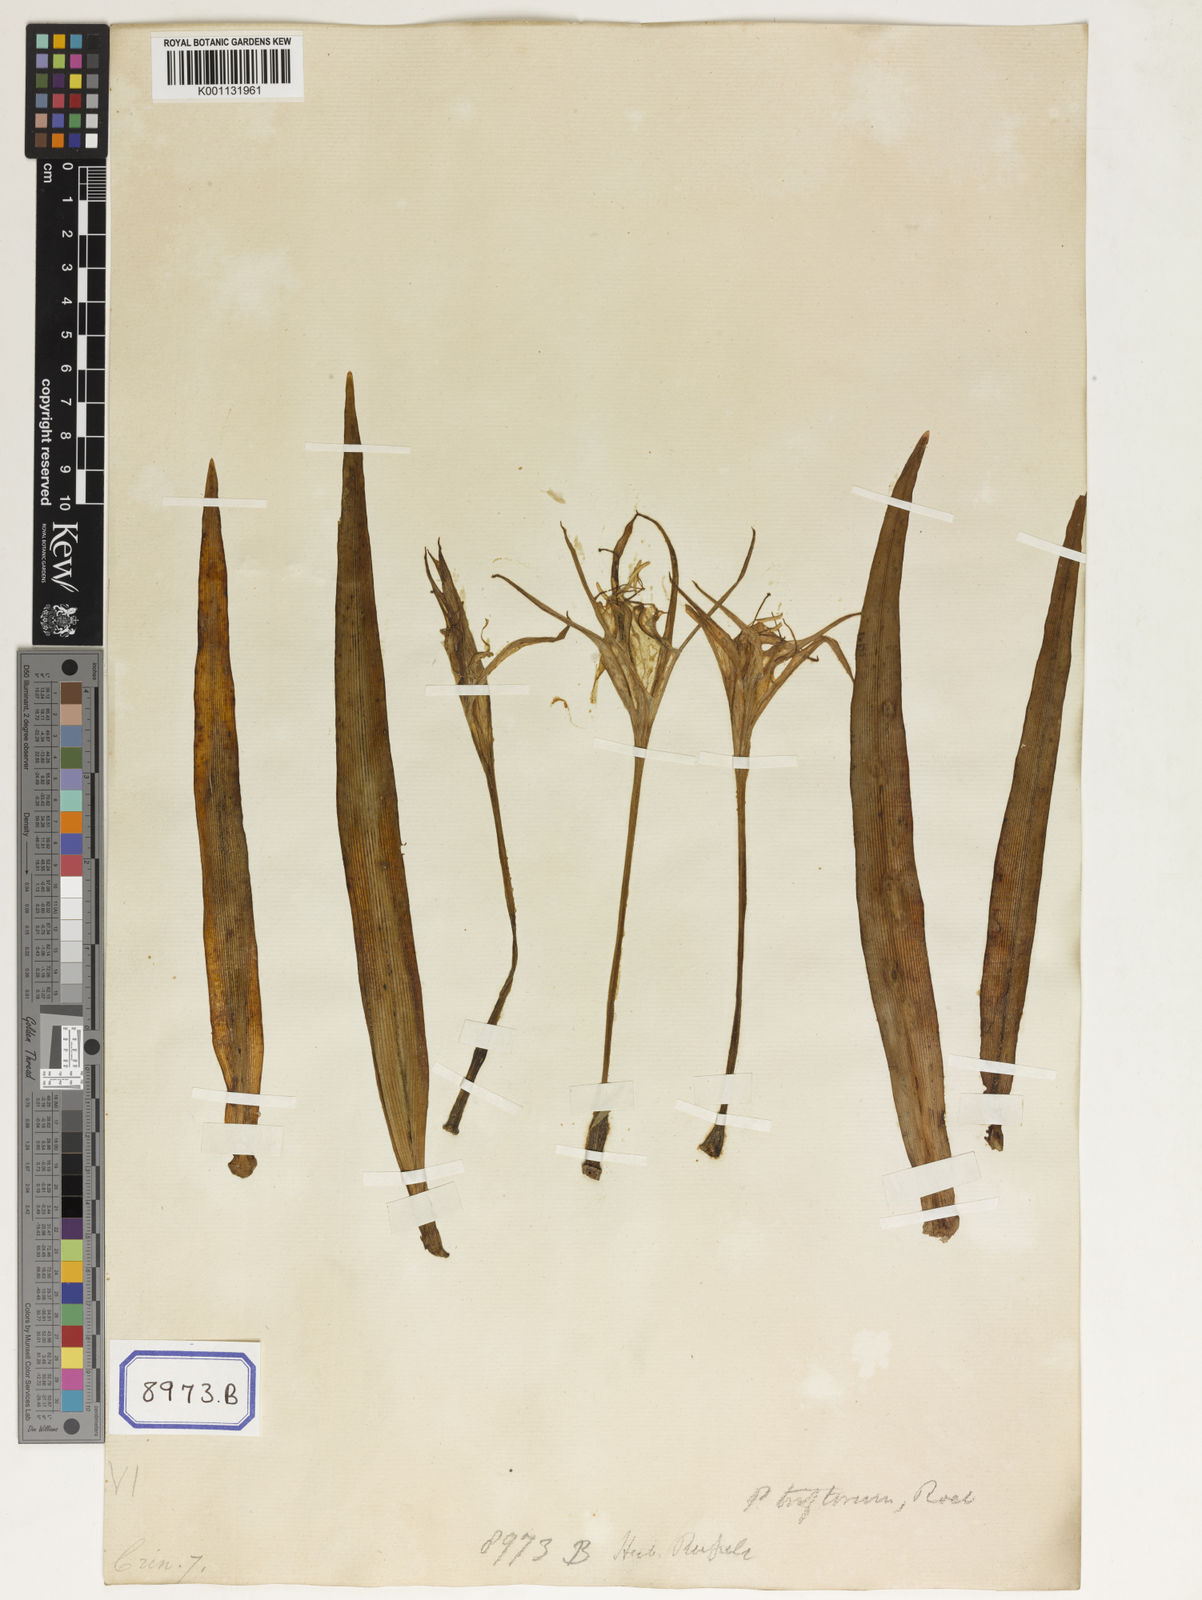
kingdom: Plantae
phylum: Tracheophyta
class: Liliopsida
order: Asparagales
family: Amaryllidaceae
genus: Pancratium
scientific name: Pancratium zeylanicum
